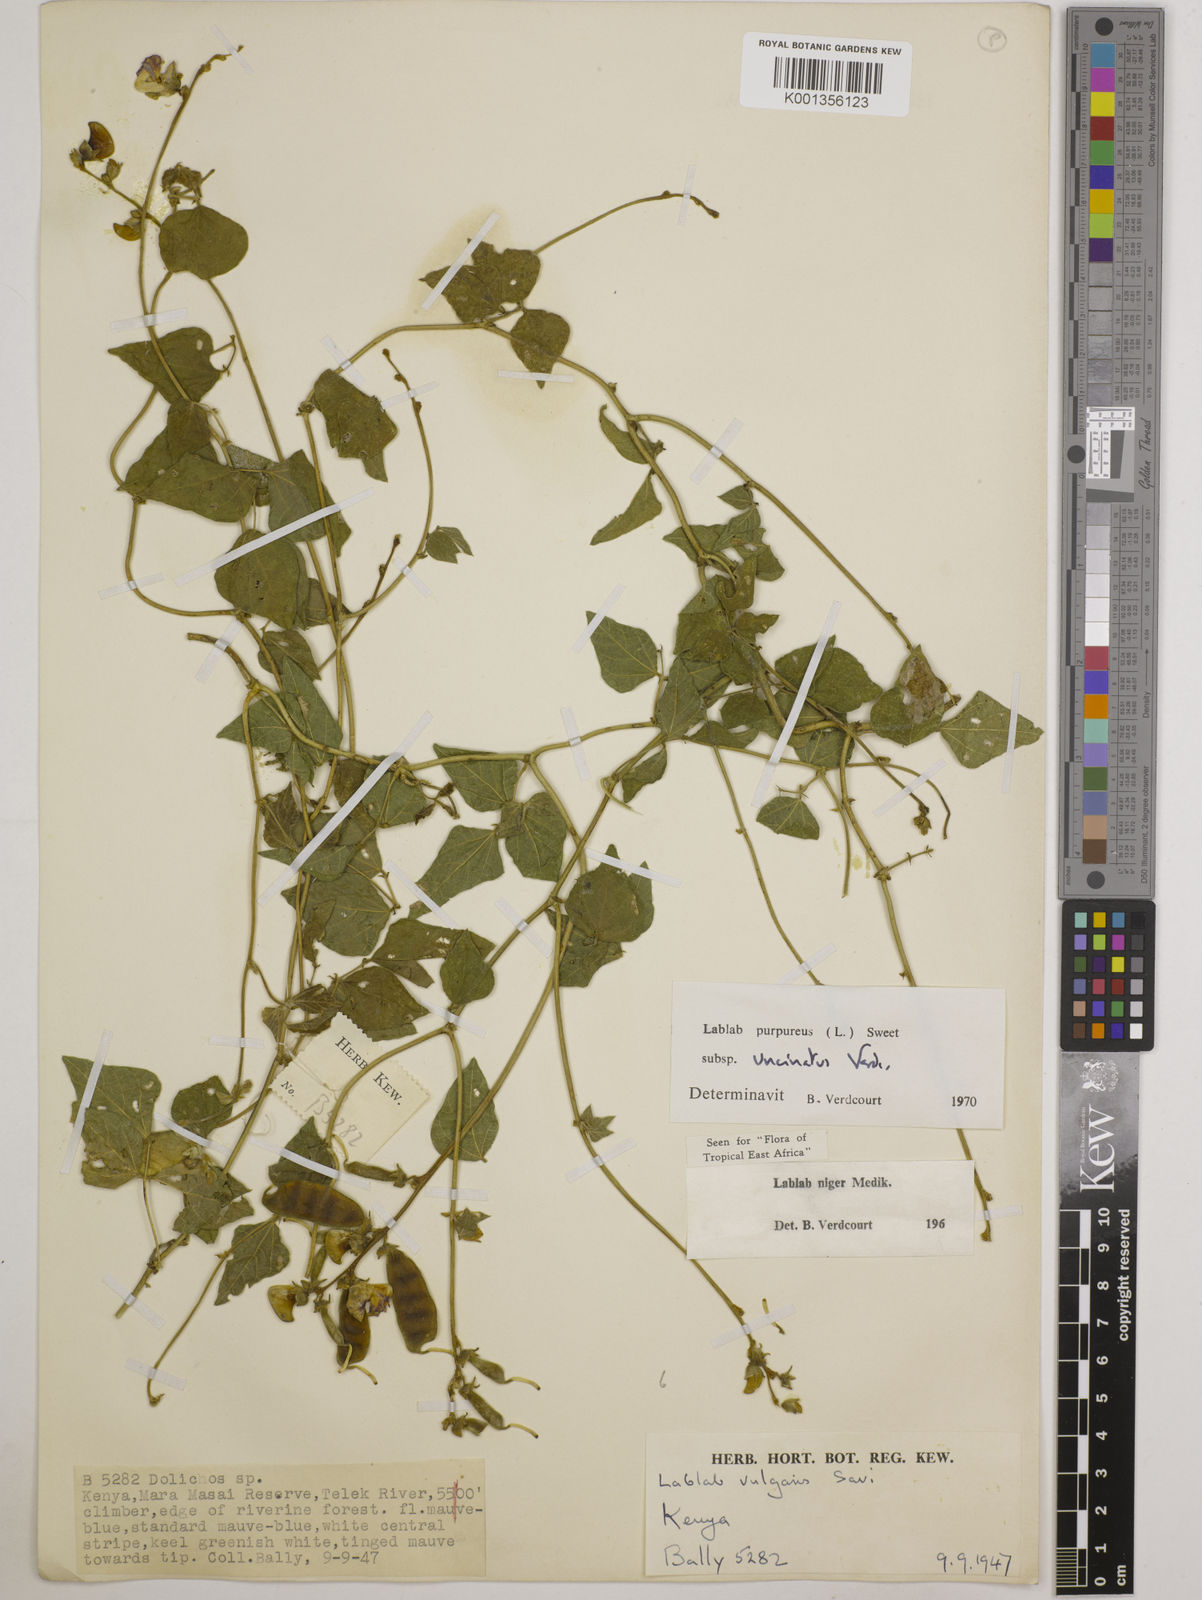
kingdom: Plantae
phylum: Tracheophyta
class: Magnoliopsida
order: Fabales
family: Fabaceae
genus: Lablab
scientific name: Lablab purpureus
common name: Lablab-bean
